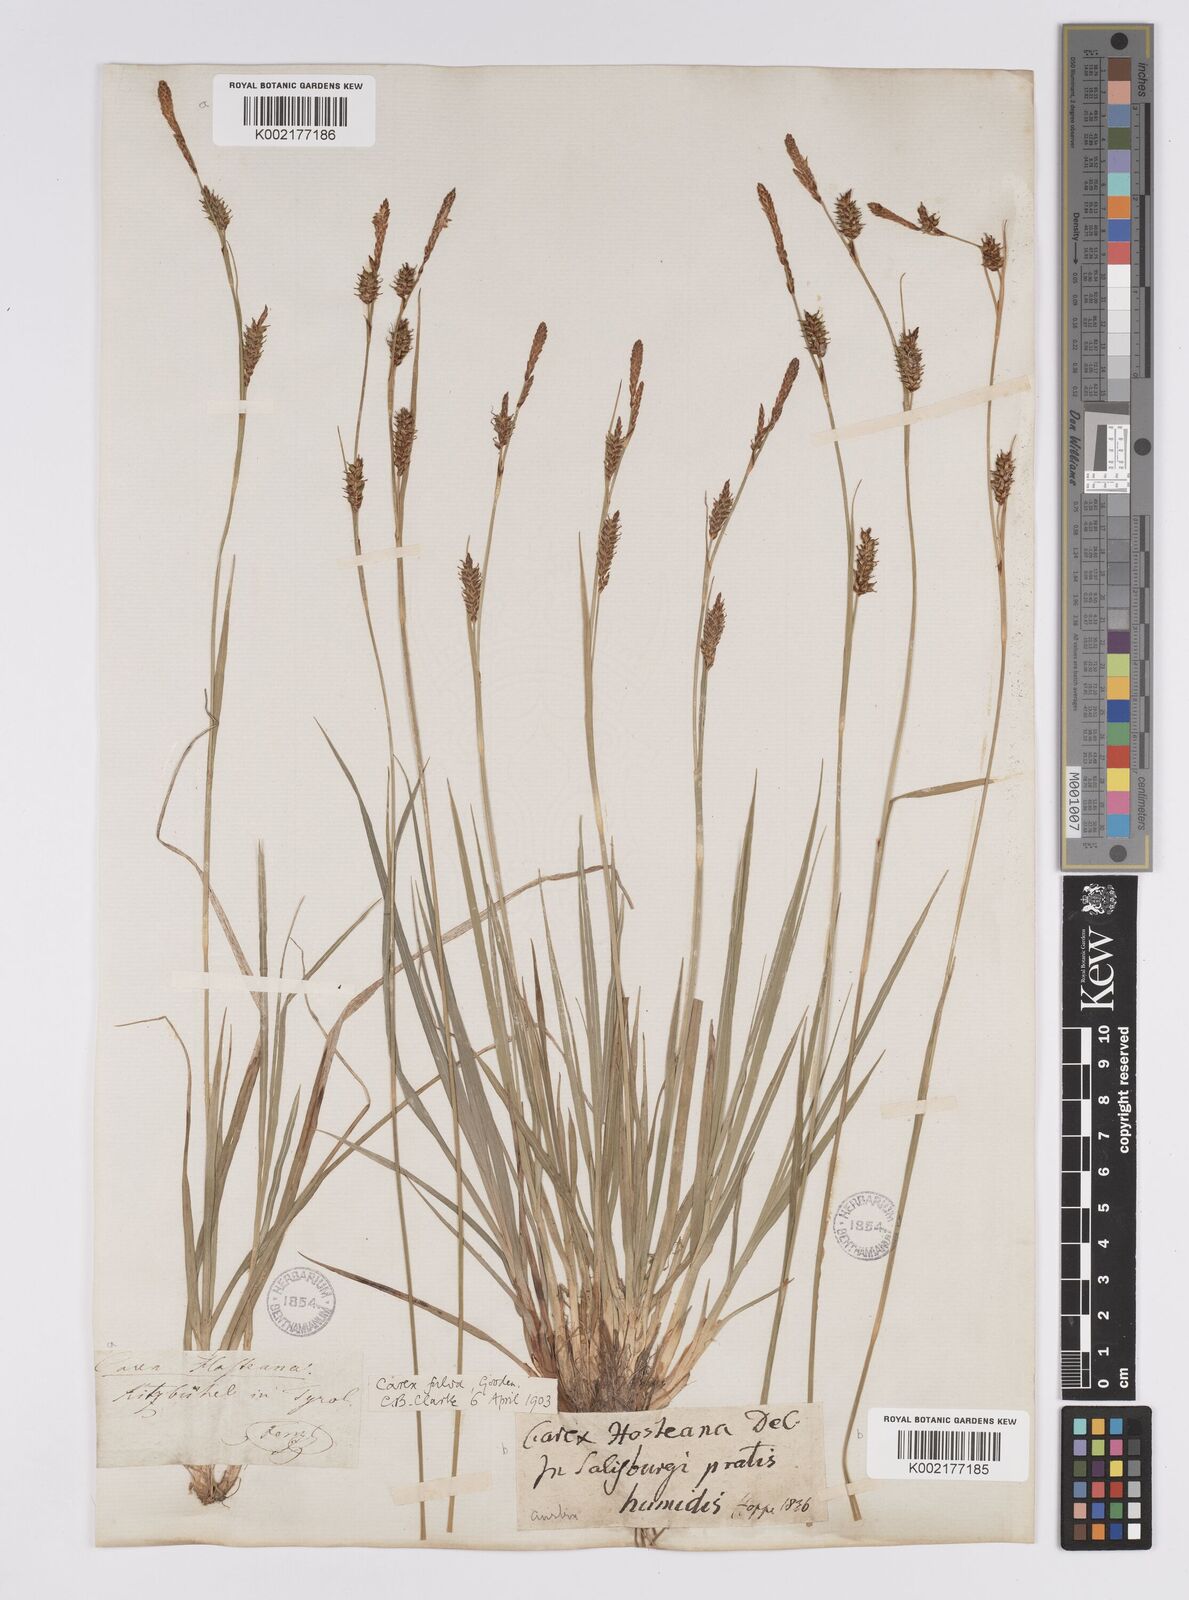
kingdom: Plantae
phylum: Tracheophyta
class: Liliopsida
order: Poales
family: Cyperaceae
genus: Carex
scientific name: Carex hostiana
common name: Tawny sedge
